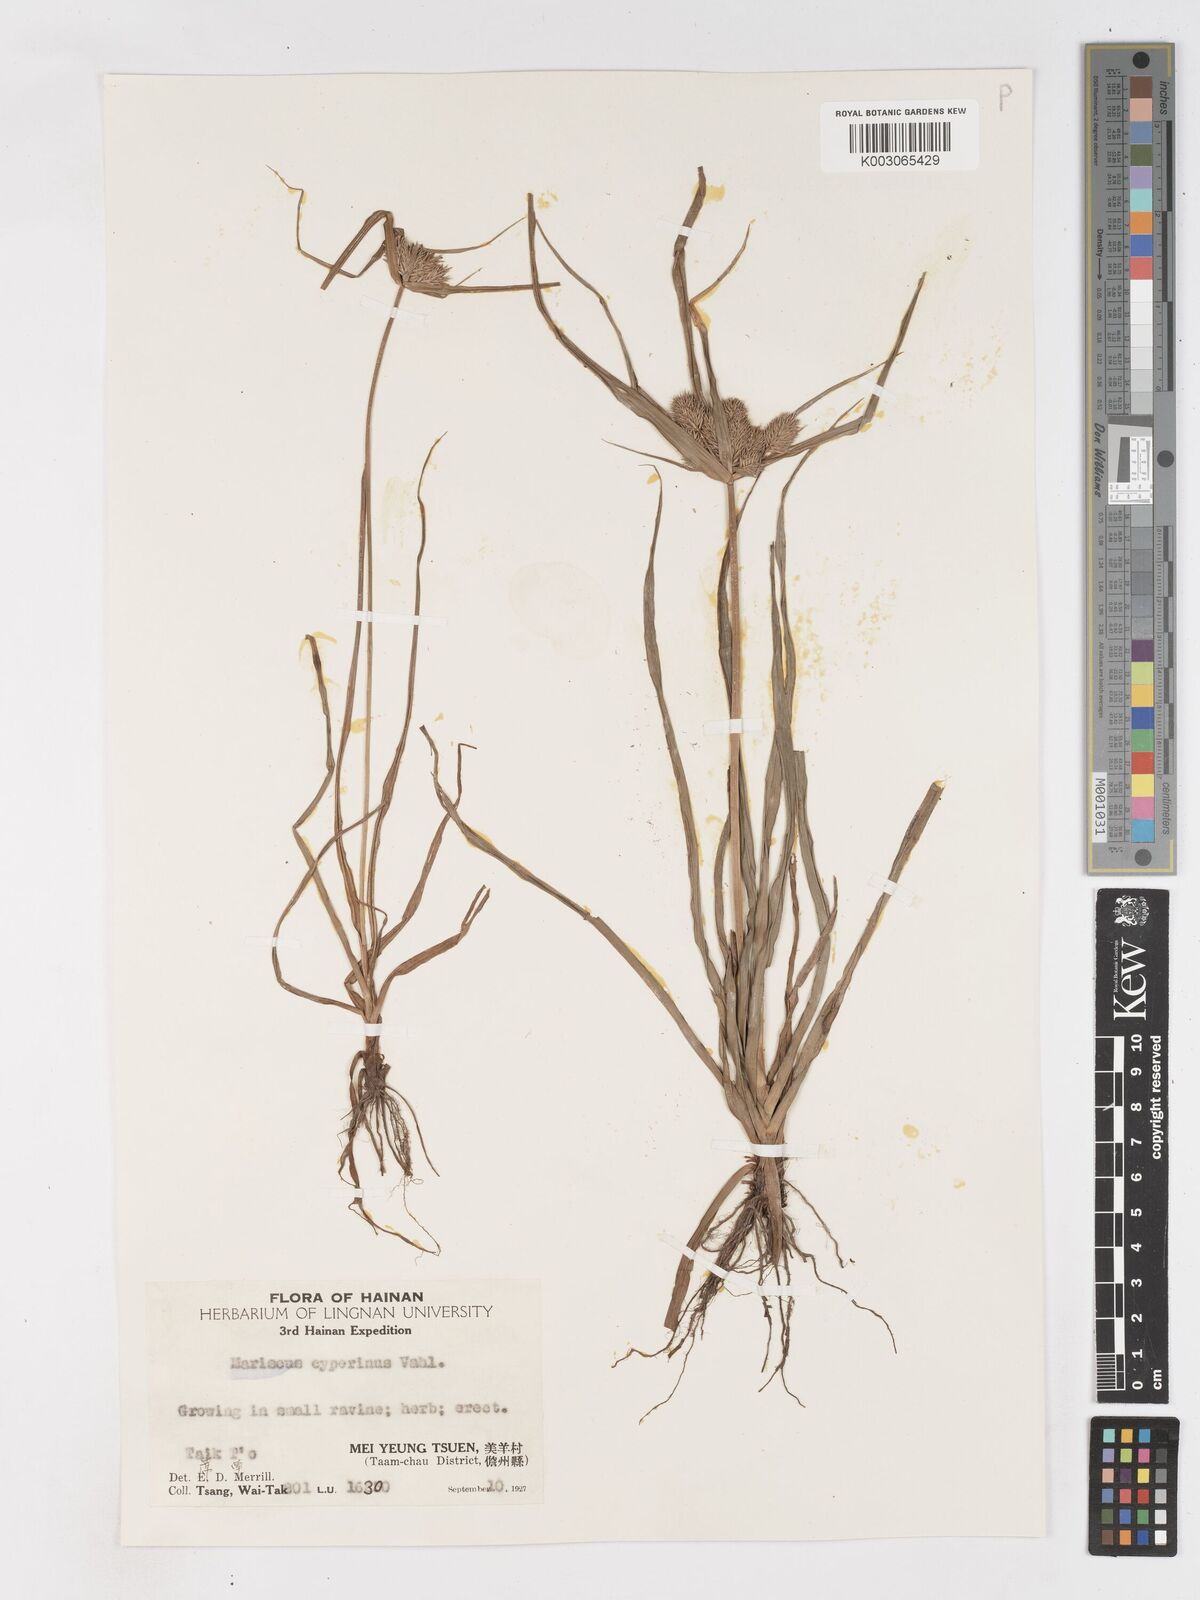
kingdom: Plantae
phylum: Tracheophyta
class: Liliopsida
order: Poales
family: Cyperaceae
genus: Cyperus
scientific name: Cyperus cyperinus
